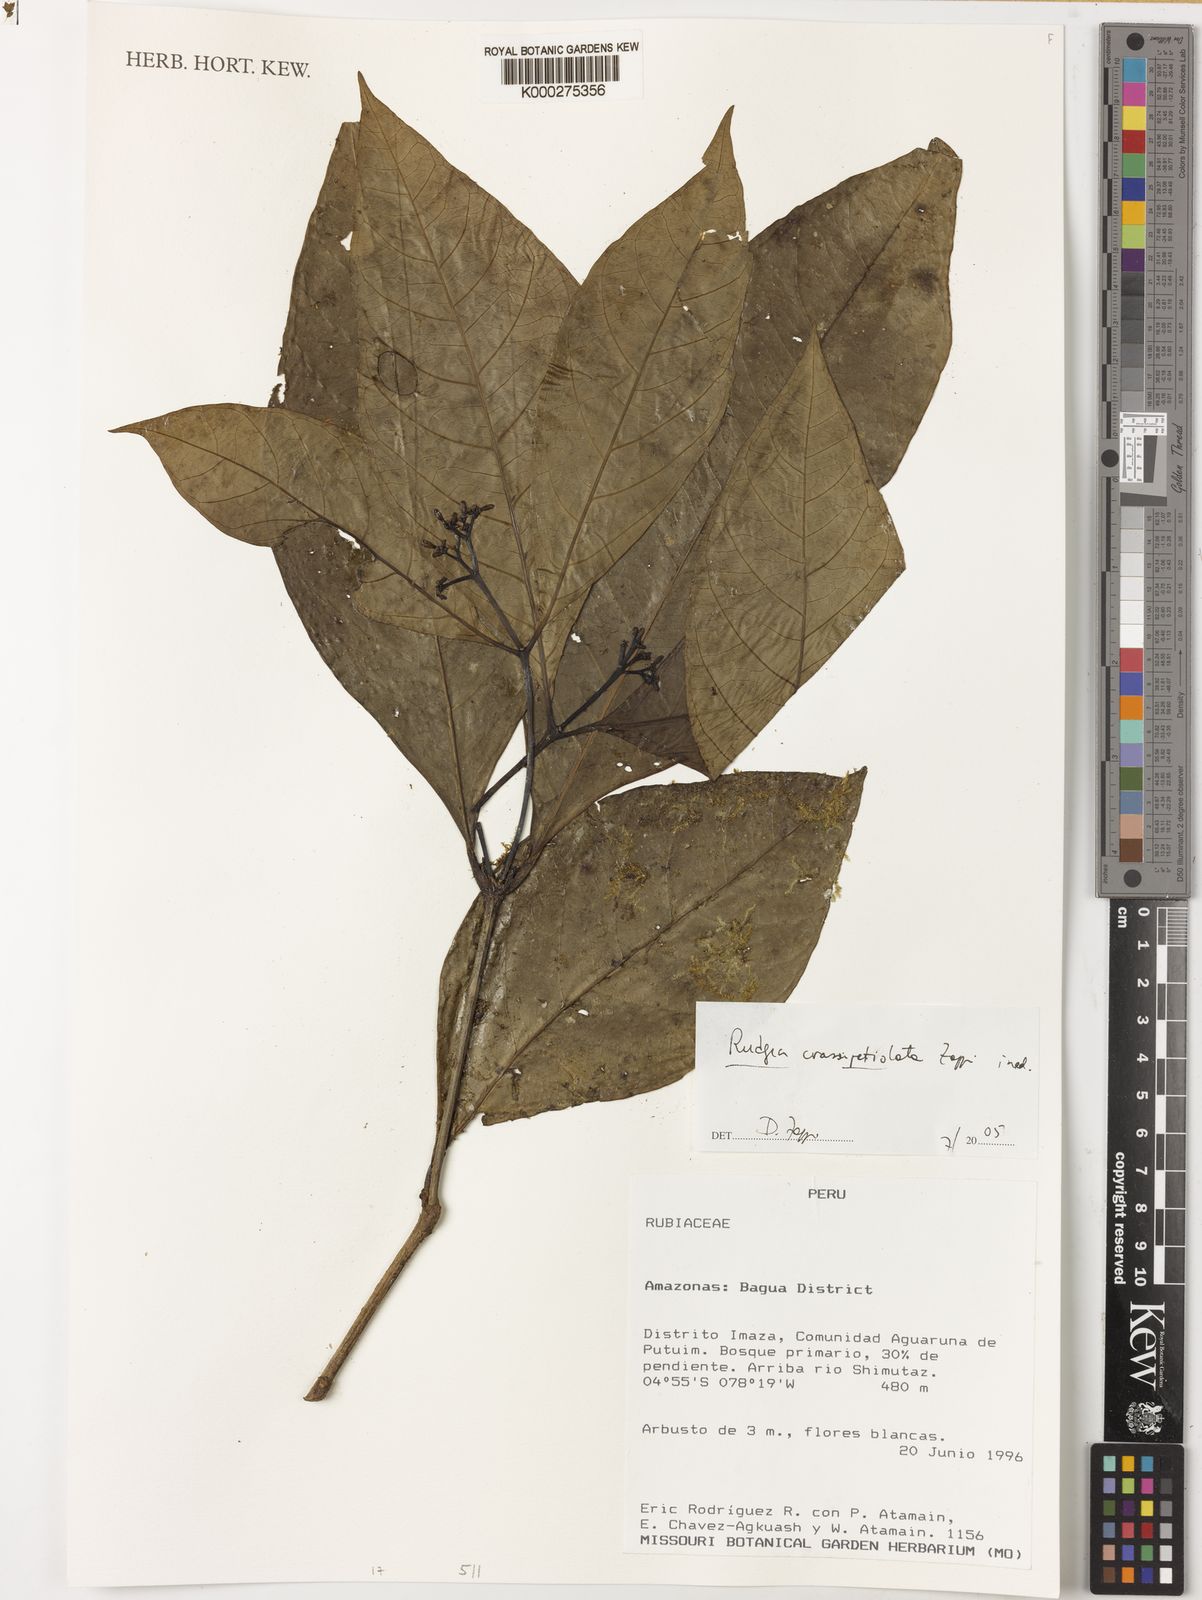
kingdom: Plantae
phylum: Tracheophyta
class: Magnoliopsida
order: Gentianales
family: Rubiaceae
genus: Rudgea
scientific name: Rudgea crassipetiolata
